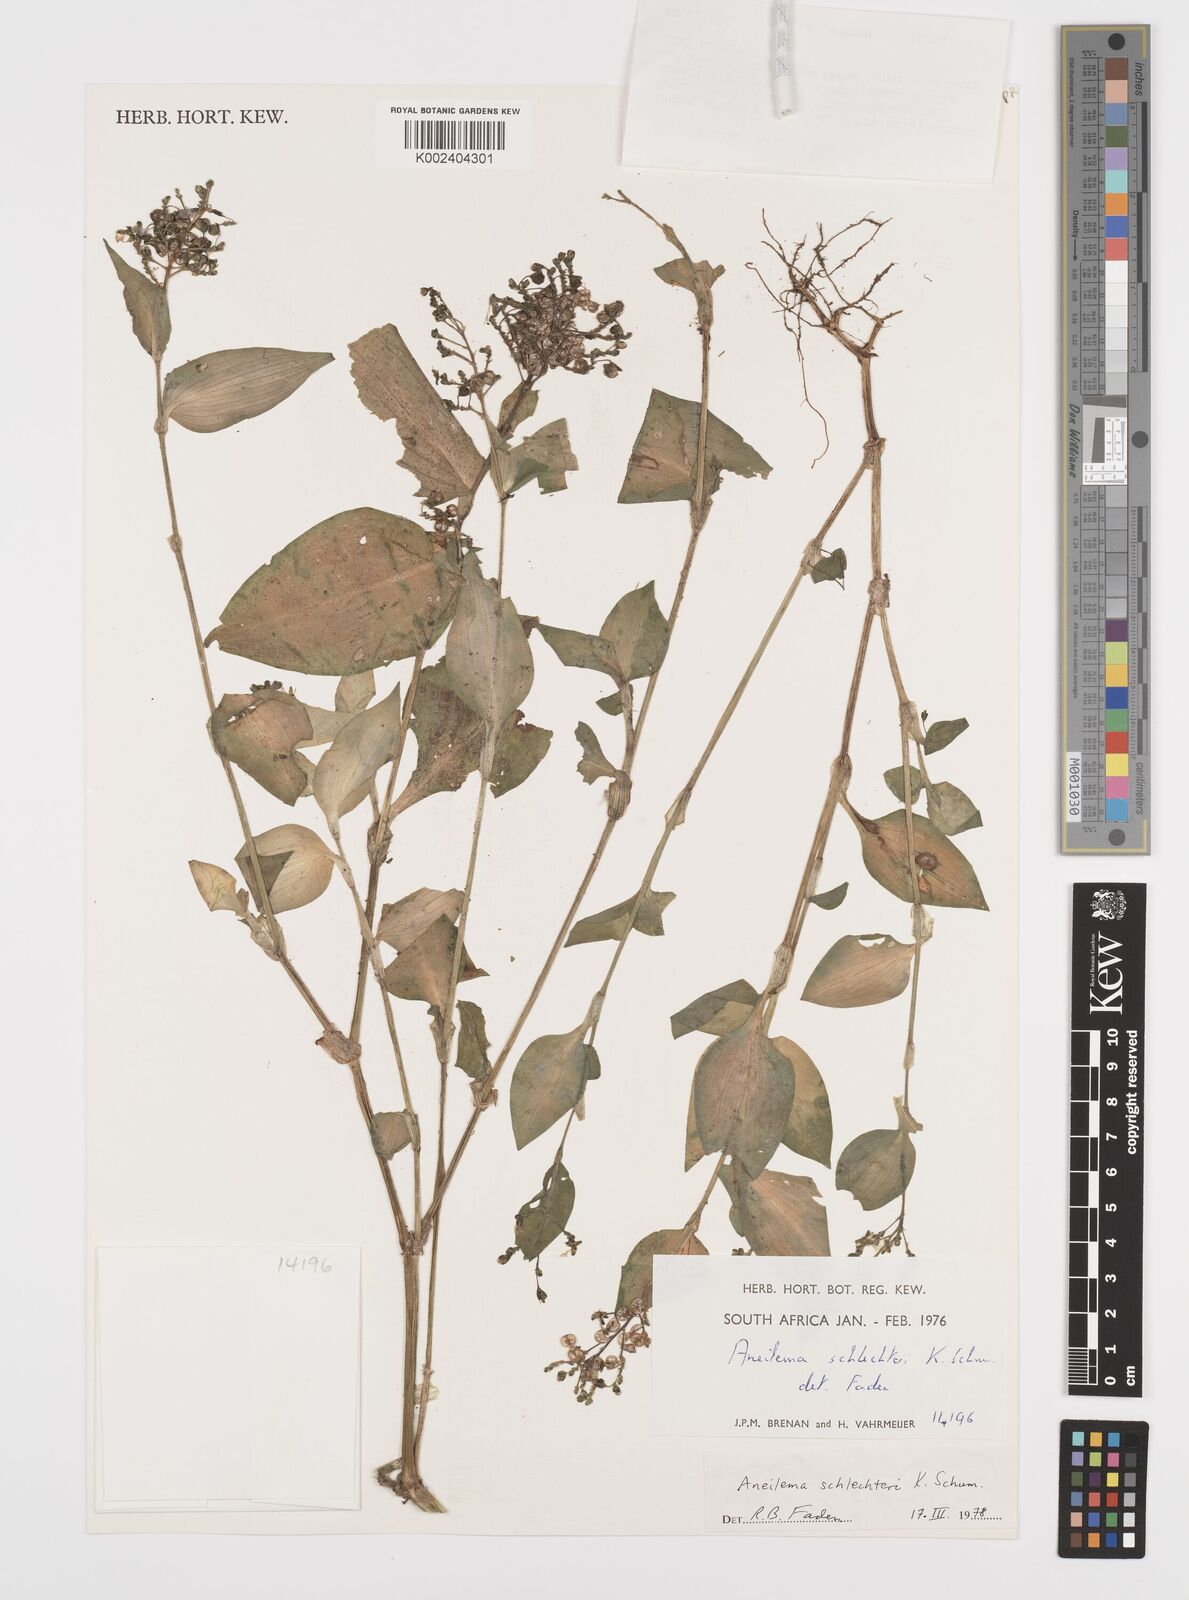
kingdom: Plantae
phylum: Tracheophyta
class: Liliopsida
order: Commelinales
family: Commelinaceae
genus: Aneilema
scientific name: Aneilema schlechteri
